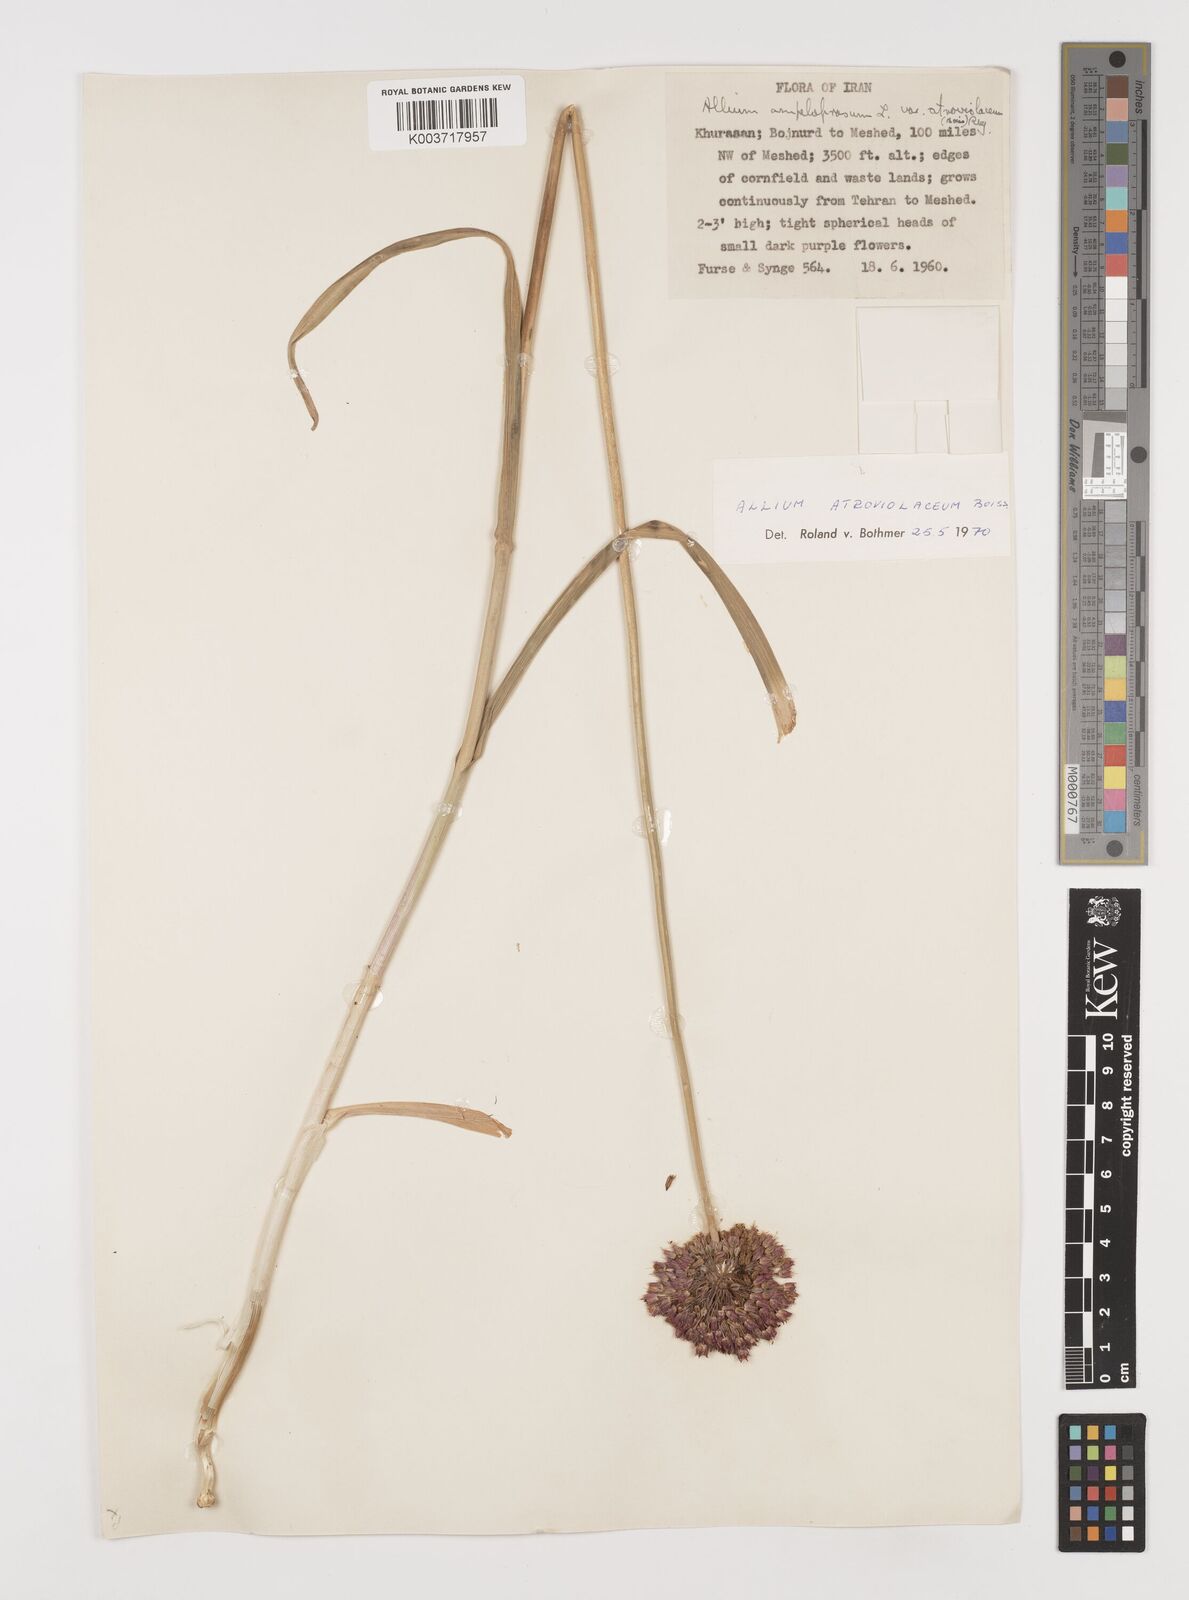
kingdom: Plantae
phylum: Tracheophyta
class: Liliopsida
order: Asparagales
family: Amaryllidaceae
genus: Allium
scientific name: Allium atroviolaceum
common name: Broadleaf wild leek
